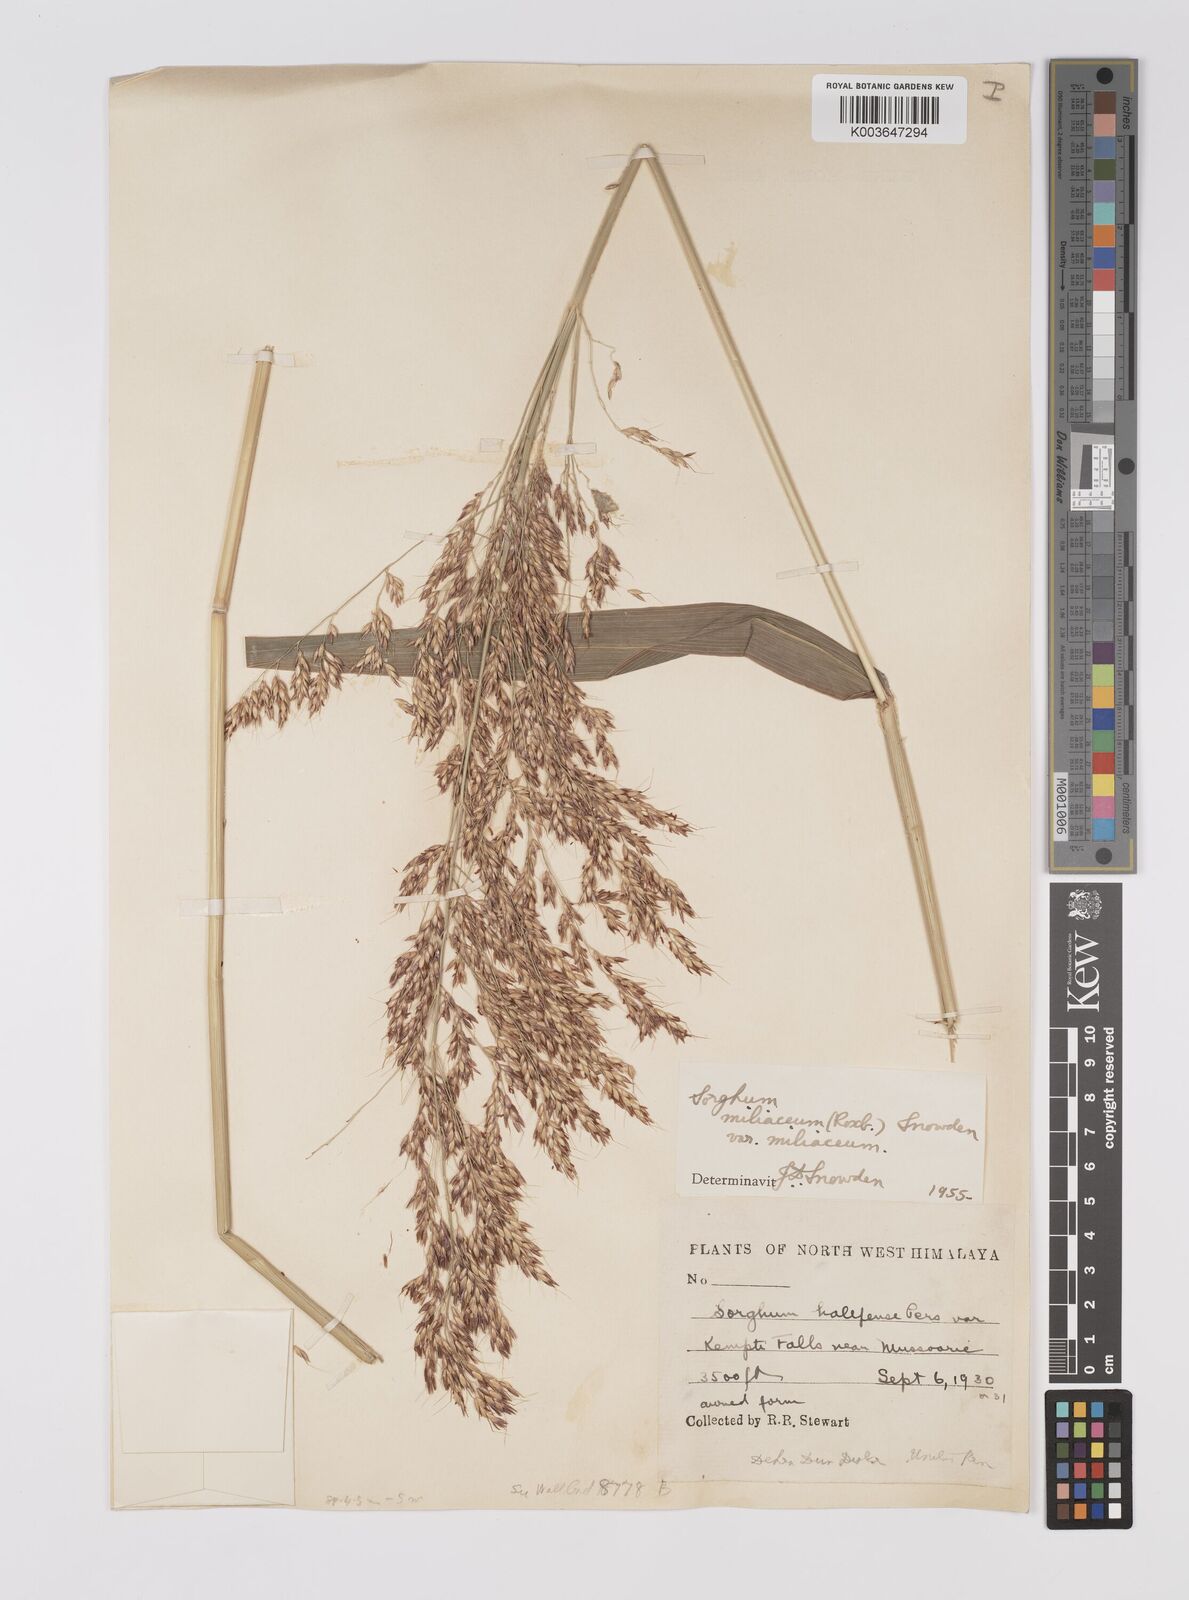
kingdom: Plantae
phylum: Tracheophyta
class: Liliopsida
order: Poales
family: Poaceae
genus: Sorghum
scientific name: Sorghum halepense
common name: Johnson-grass
